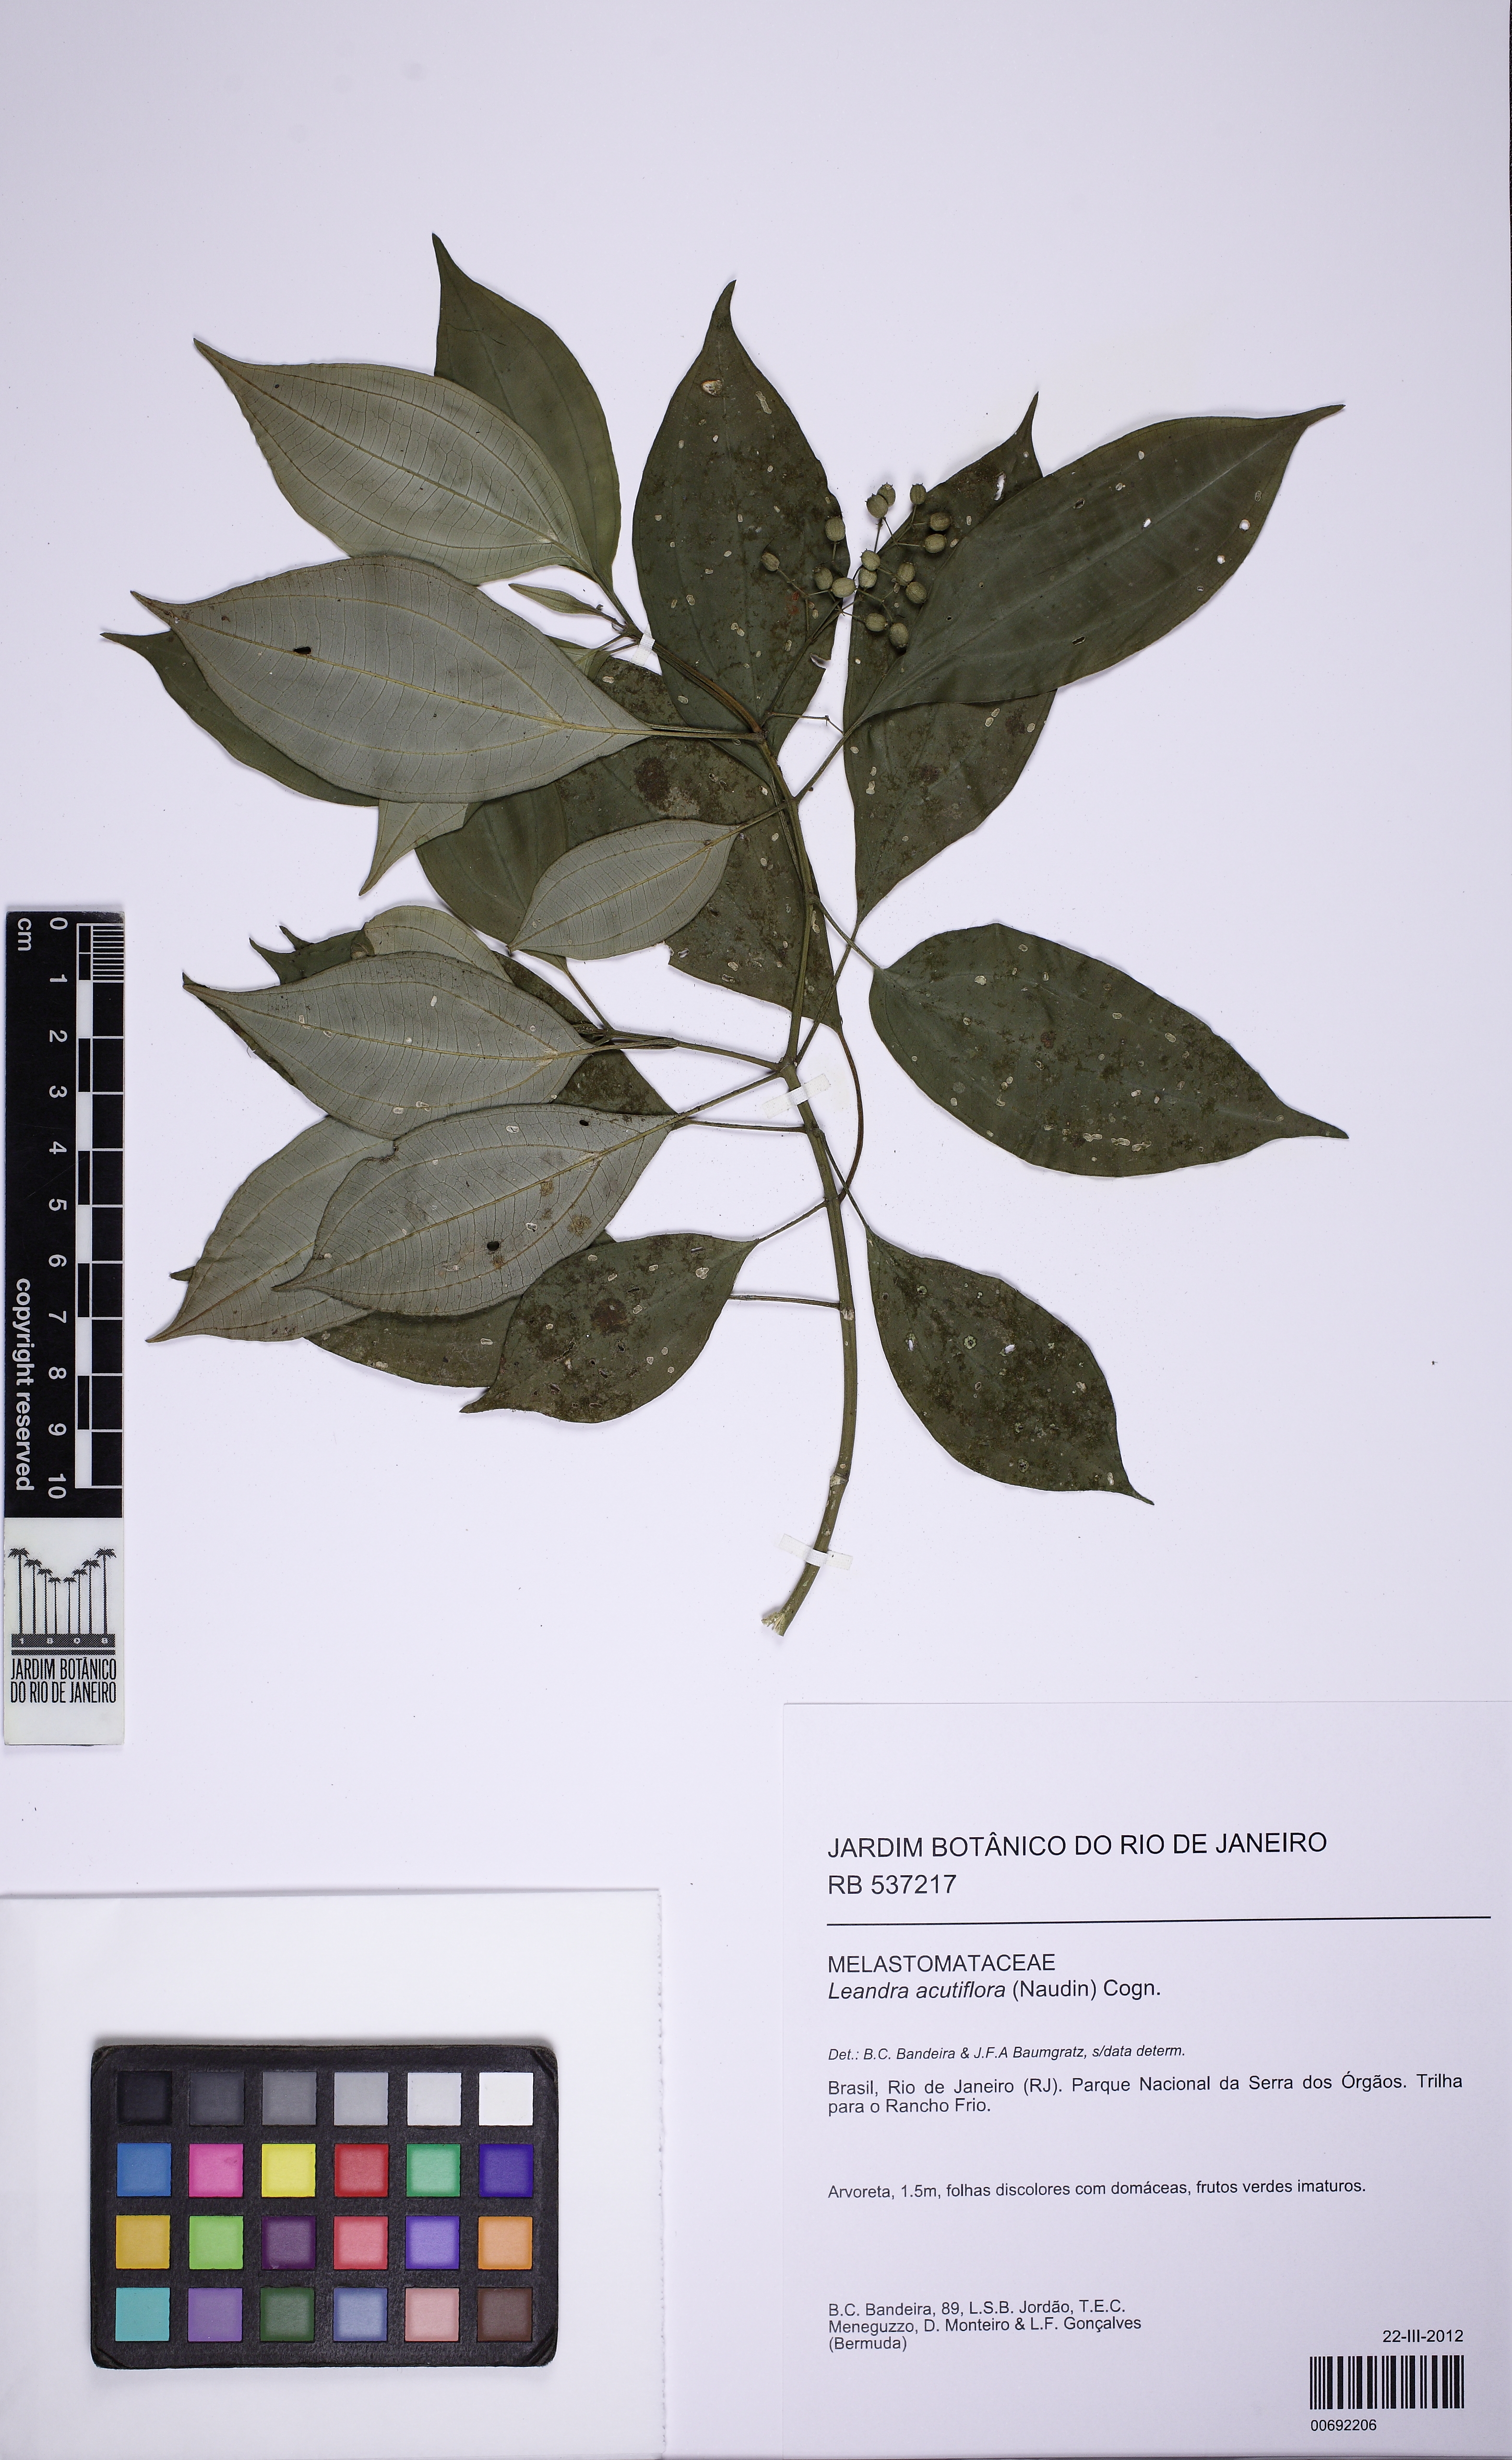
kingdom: Plantae
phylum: Tracheophyta
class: Magnoliopsida
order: Myrtales
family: Melastomataceae
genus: Miconia
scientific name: Miconia acutiflora
